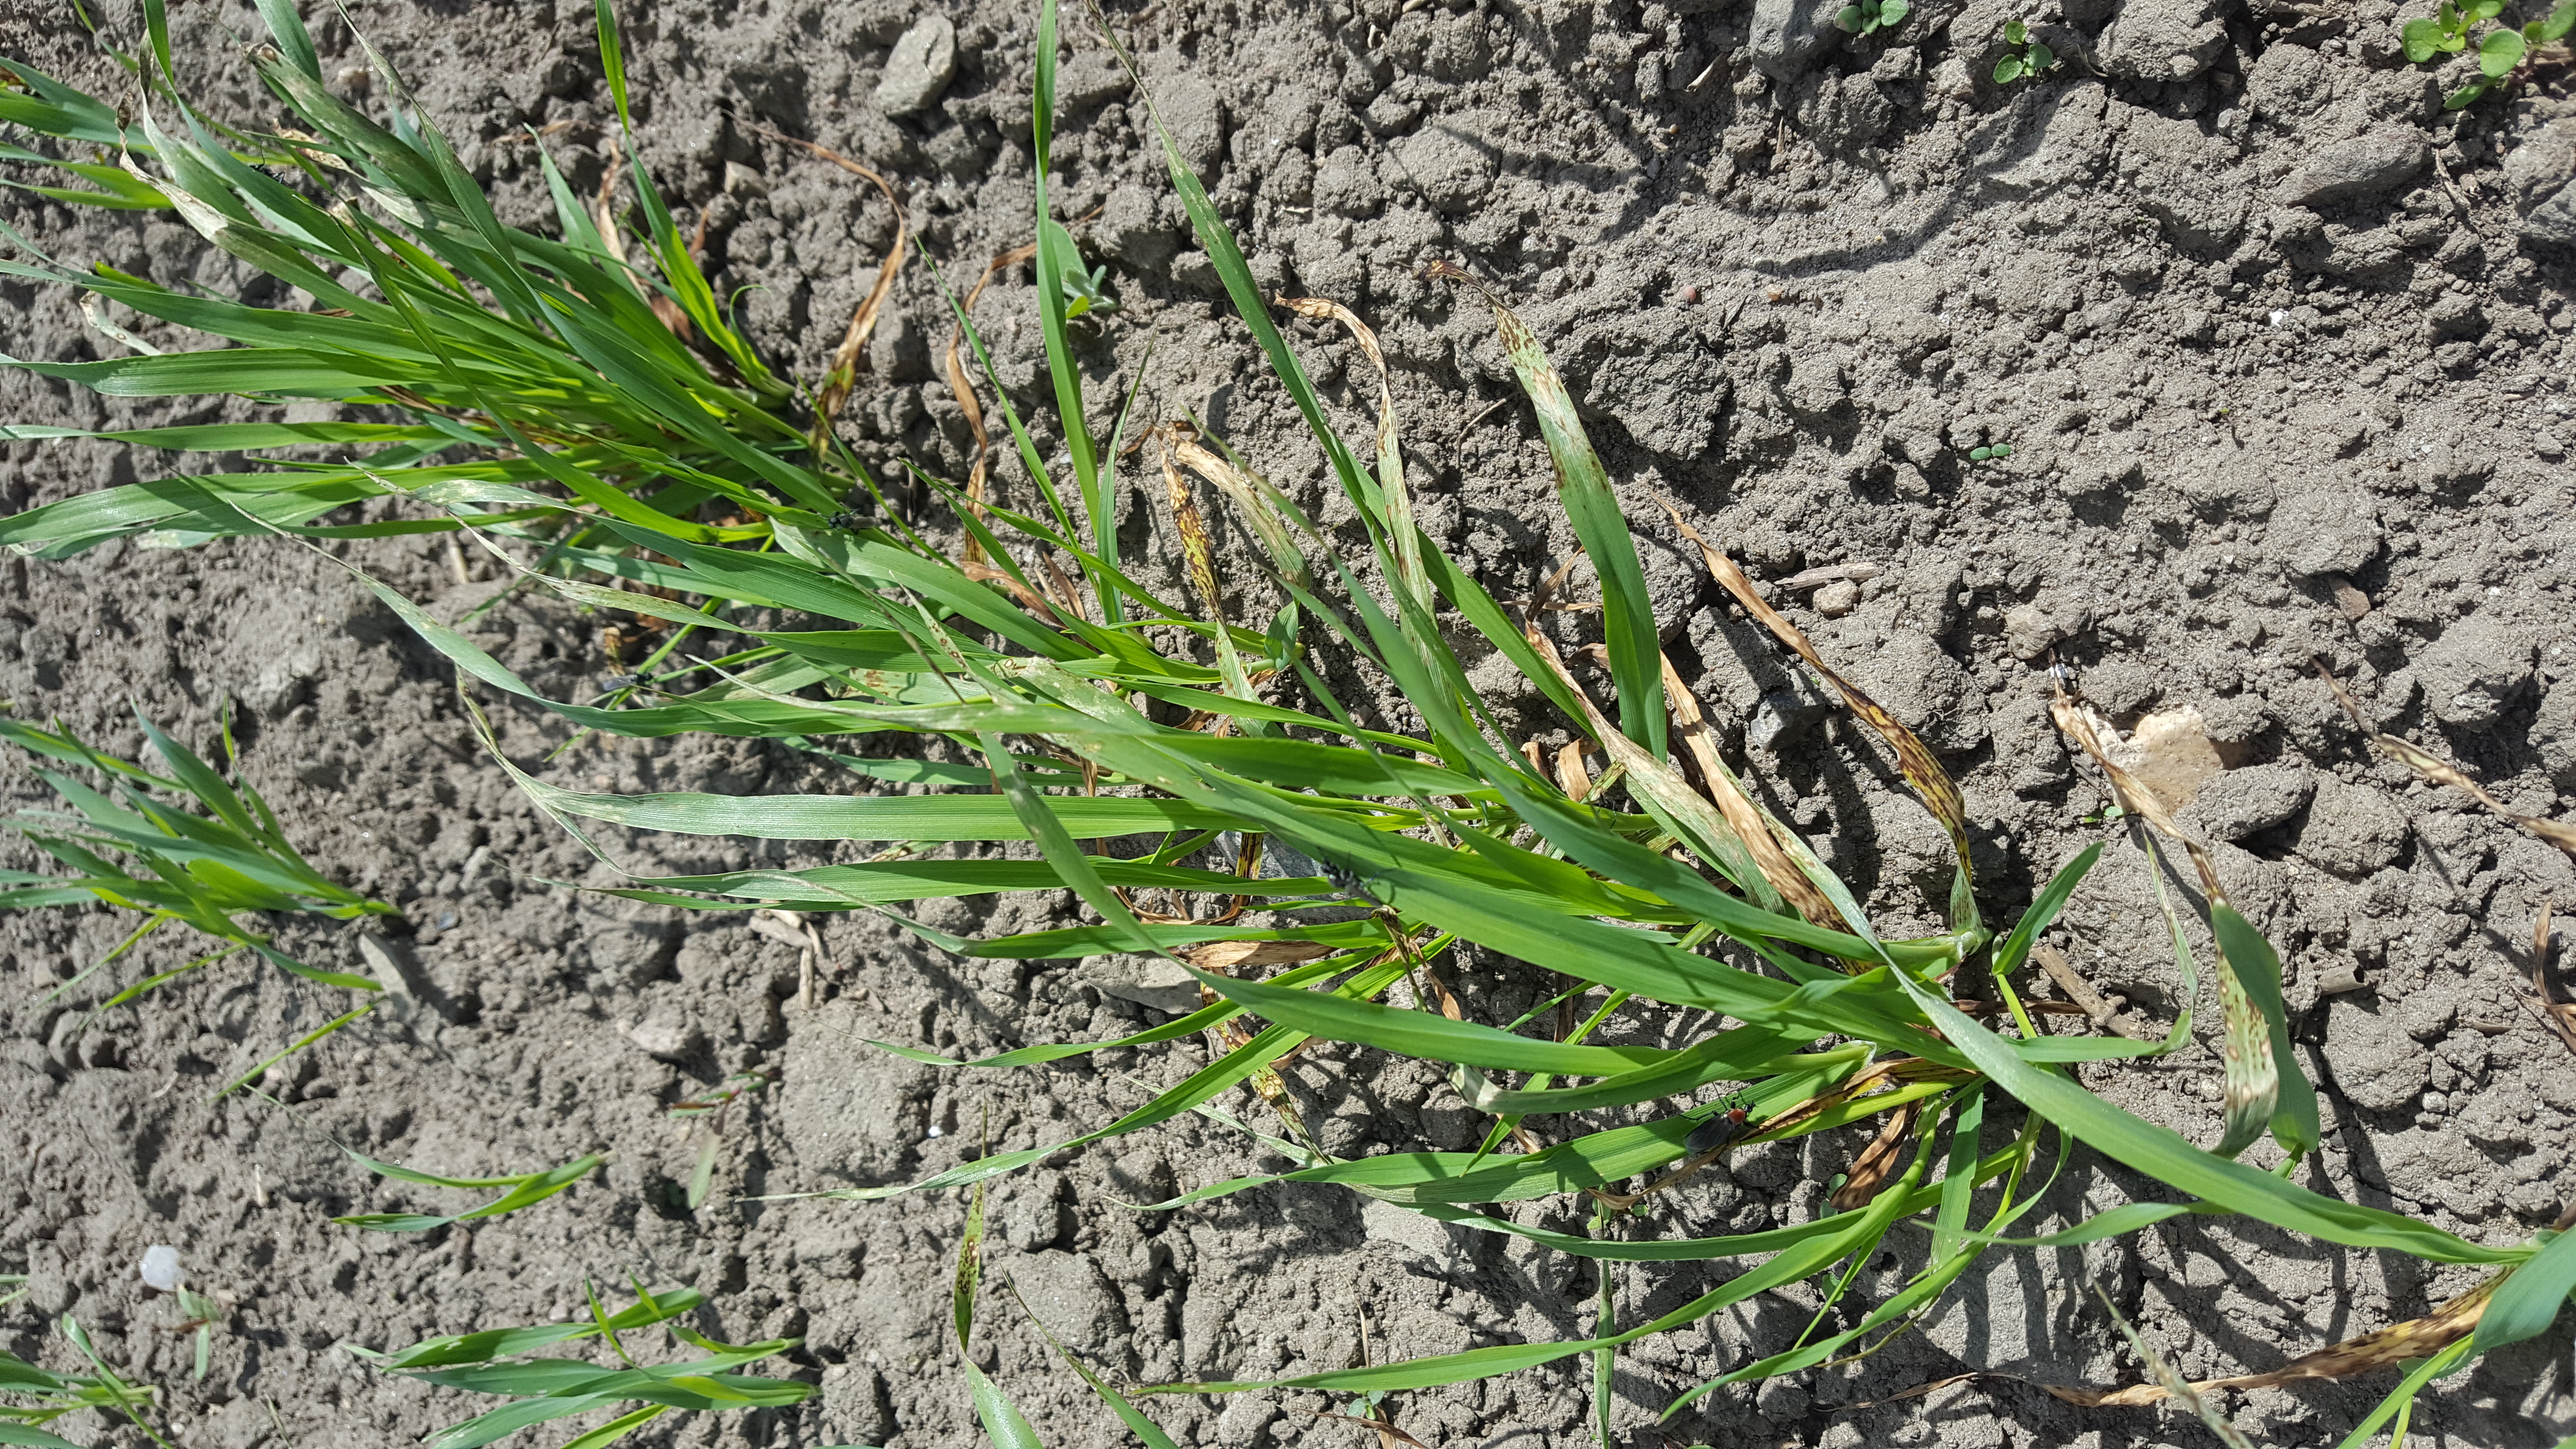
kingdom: Plantae
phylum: Tracheophyta
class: Liliopsida
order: Poales
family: Poaceae
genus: Hordeum
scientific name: Hordeum vulgare
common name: Common barley
